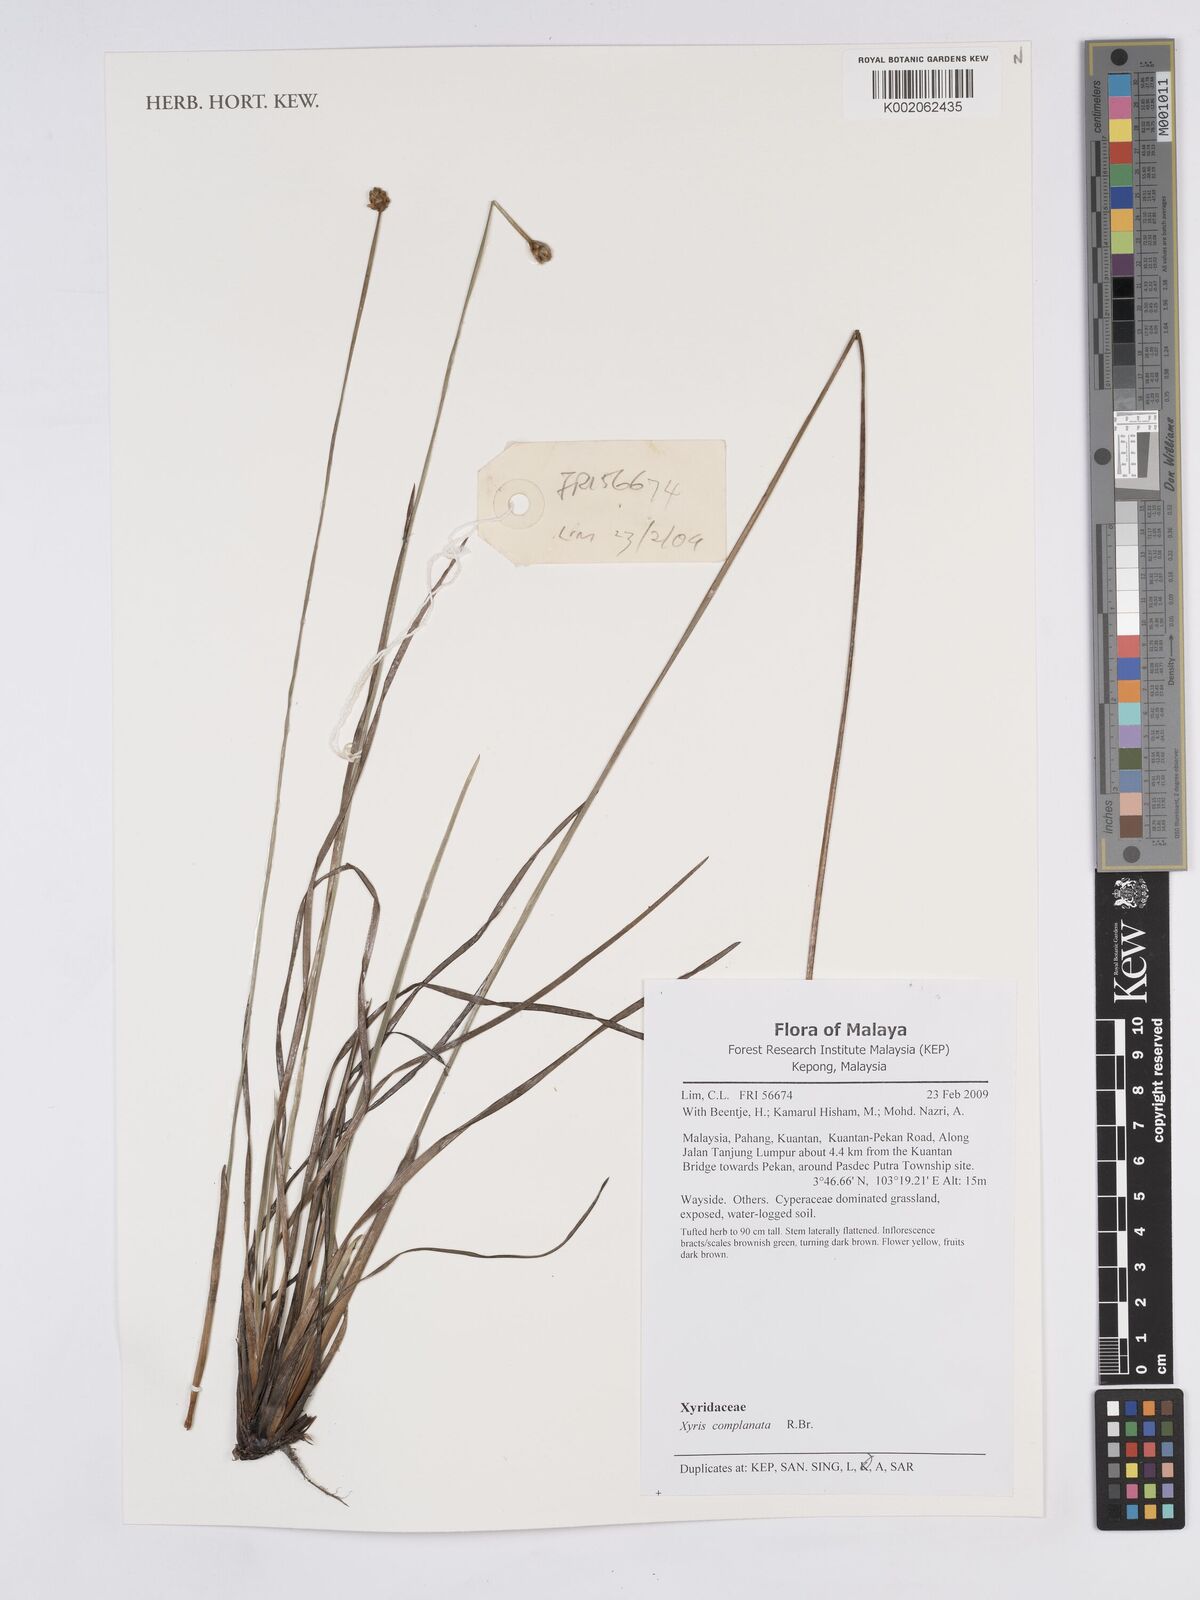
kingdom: Plantae
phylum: Tracheophyta
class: Liliopsida
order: Poales
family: Xyridaceae
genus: Xyris
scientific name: Xyris complanata
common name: Hawai'i yelloweyed grass
